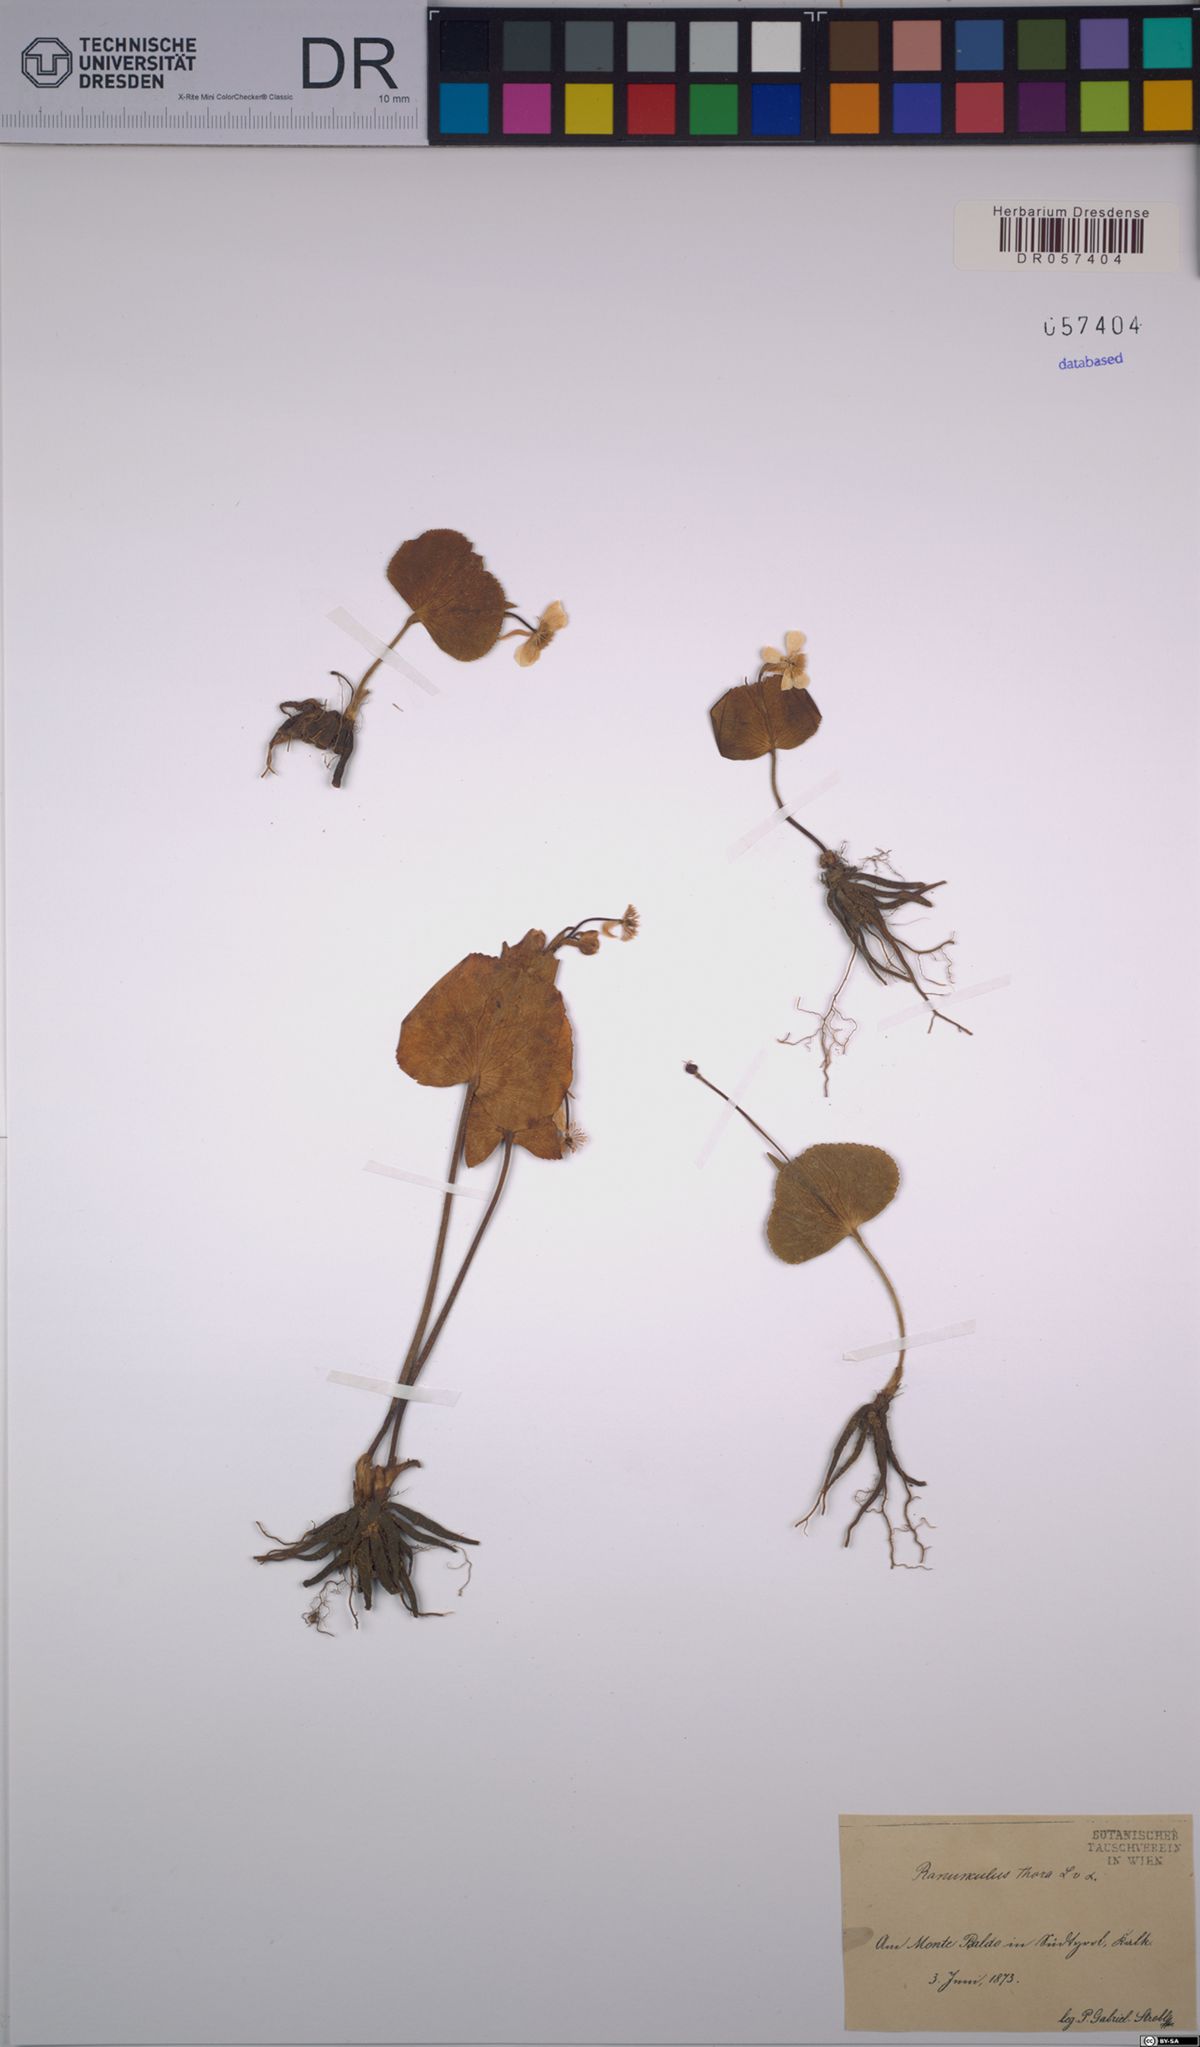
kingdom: Plantae
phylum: Tracheophyta
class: Magnoliopsida
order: Ranunculales
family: Ranunculaceae
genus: Ranunculus
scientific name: Ranunculus thora
